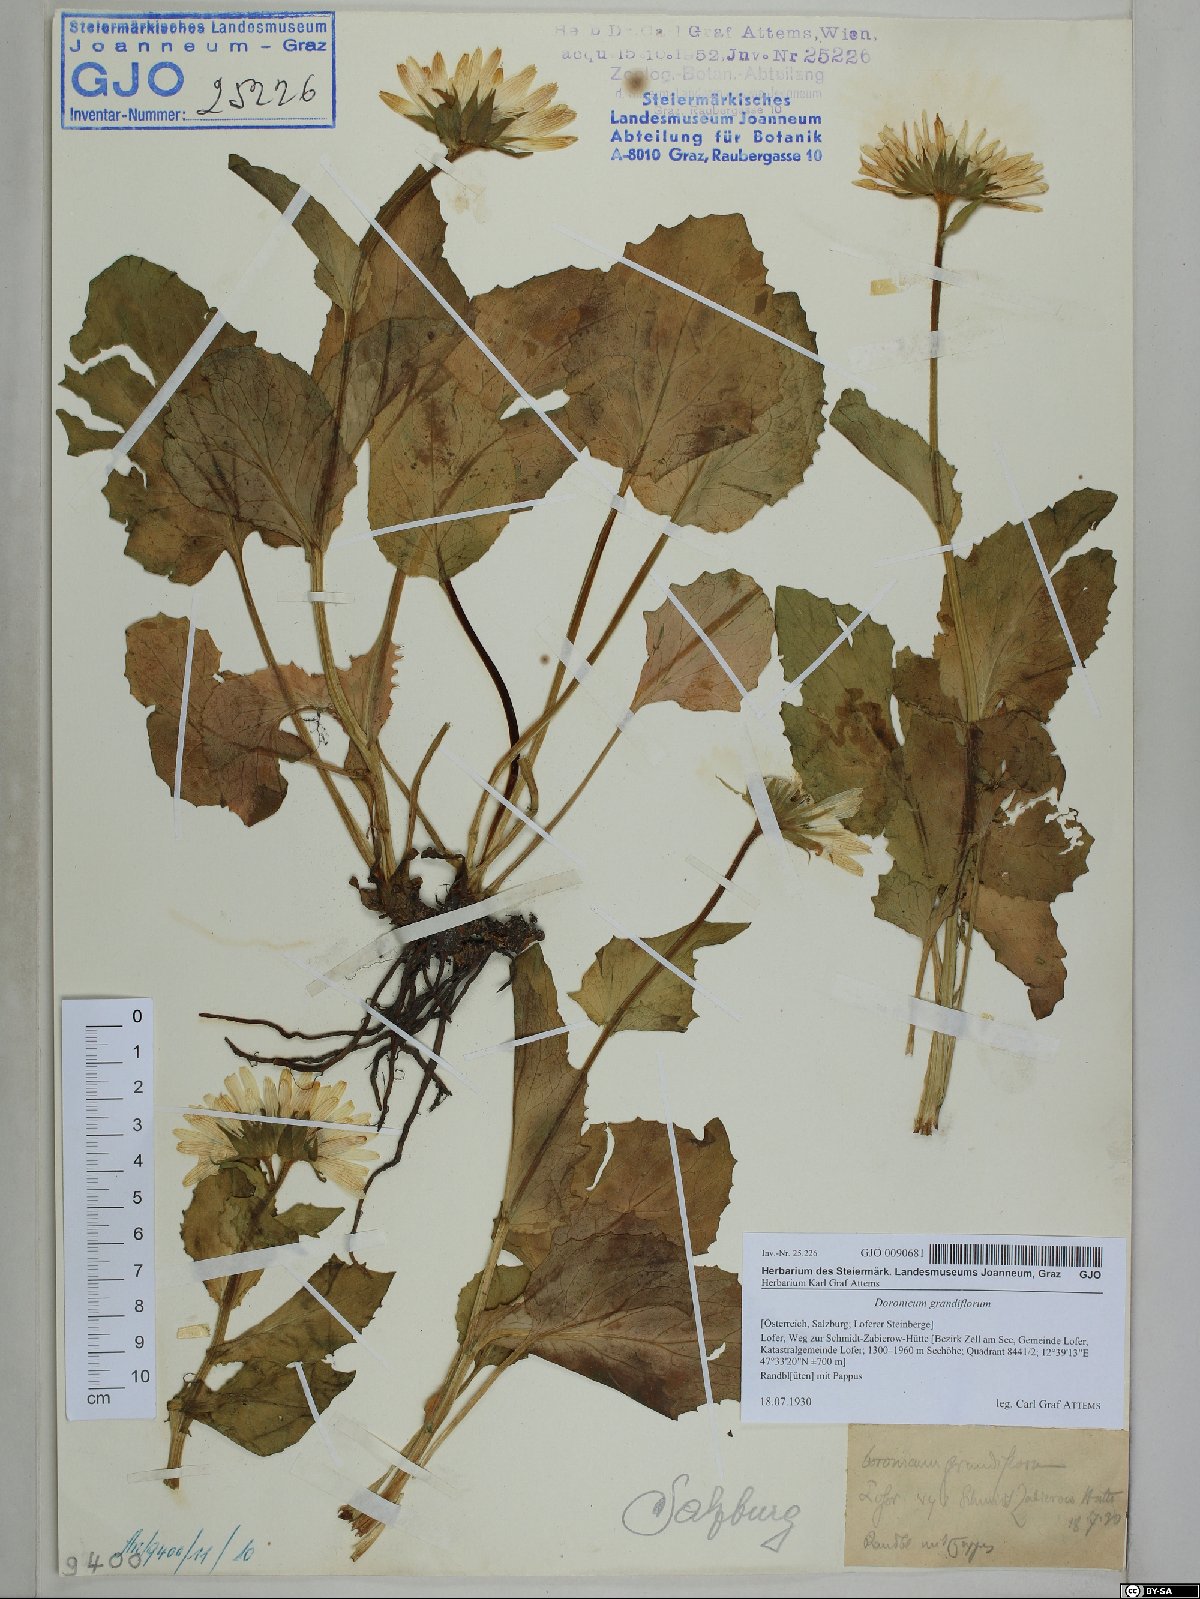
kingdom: Plantae
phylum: Tracheophyta
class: Magnoliopsida
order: Asterales
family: Asteraceae
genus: Doronicum
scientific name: Doronicum grandiflorum
